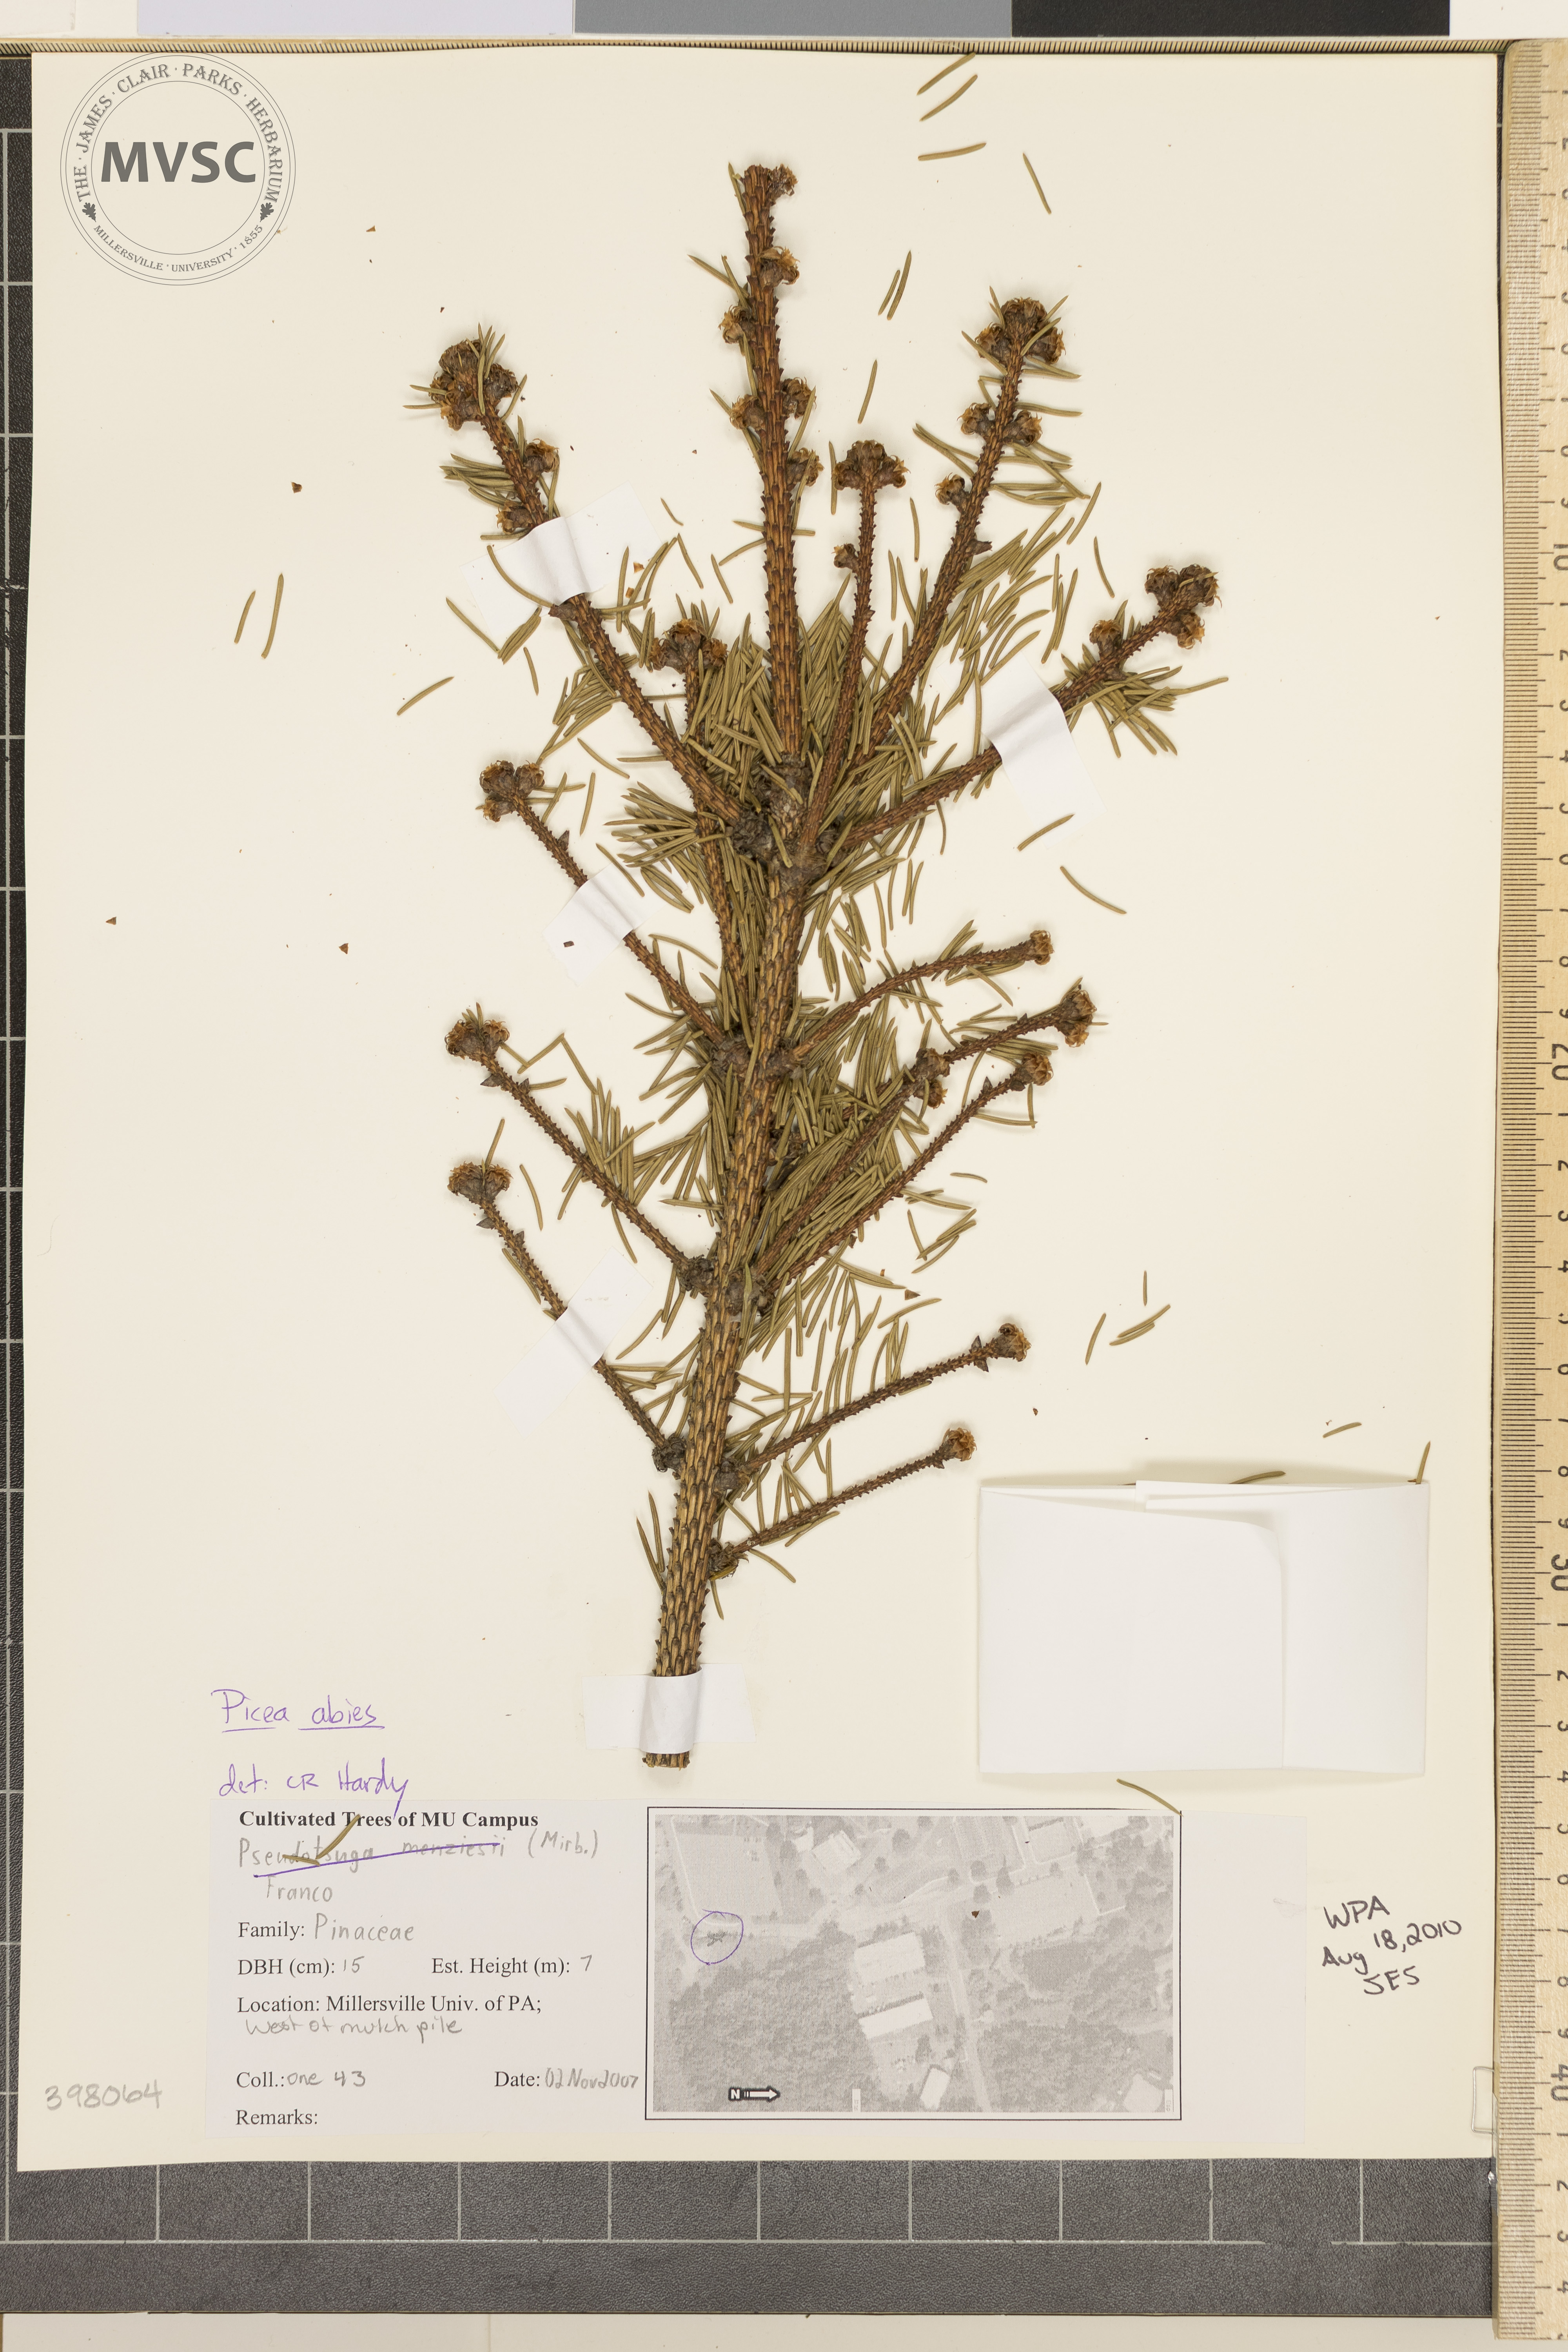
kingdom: Plantae
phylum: Tracheophyta
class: Pinopsida
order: Pinales
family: Pinaceae
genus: Picea
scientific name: Picea abies
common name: Norway spruce
